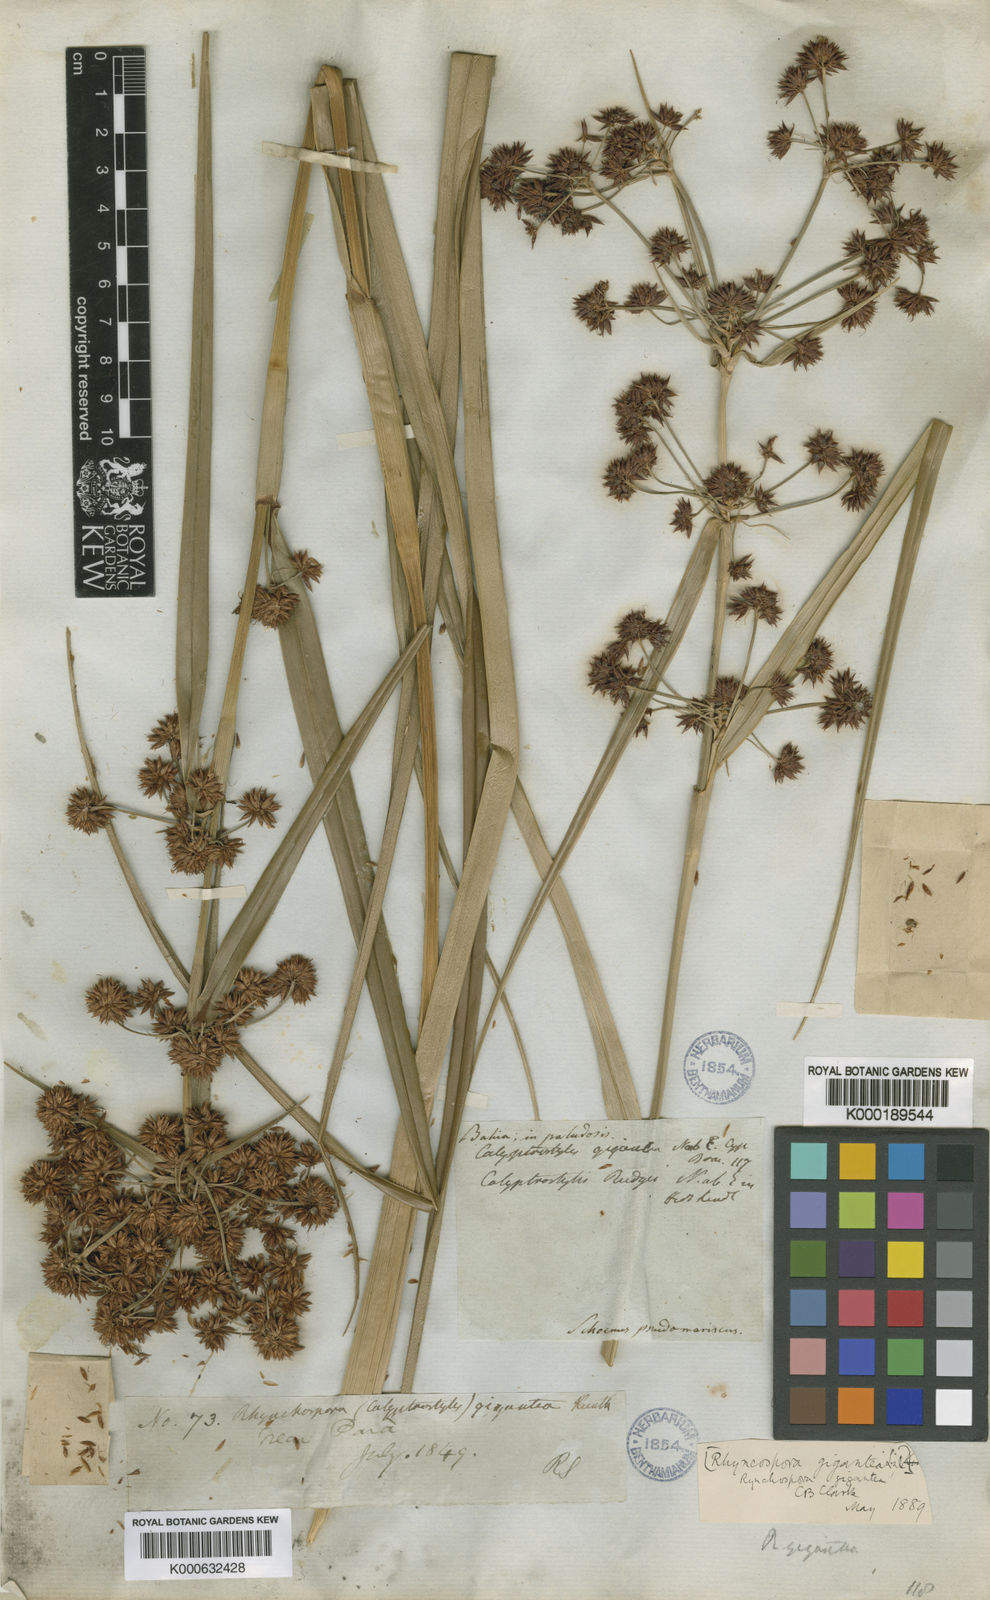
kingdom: Plantae
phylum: Tracheophyta
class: Liliopsida
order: Poales
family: Cyperaceae
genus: Rhynchospora
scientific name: Rhynchospora contracta
